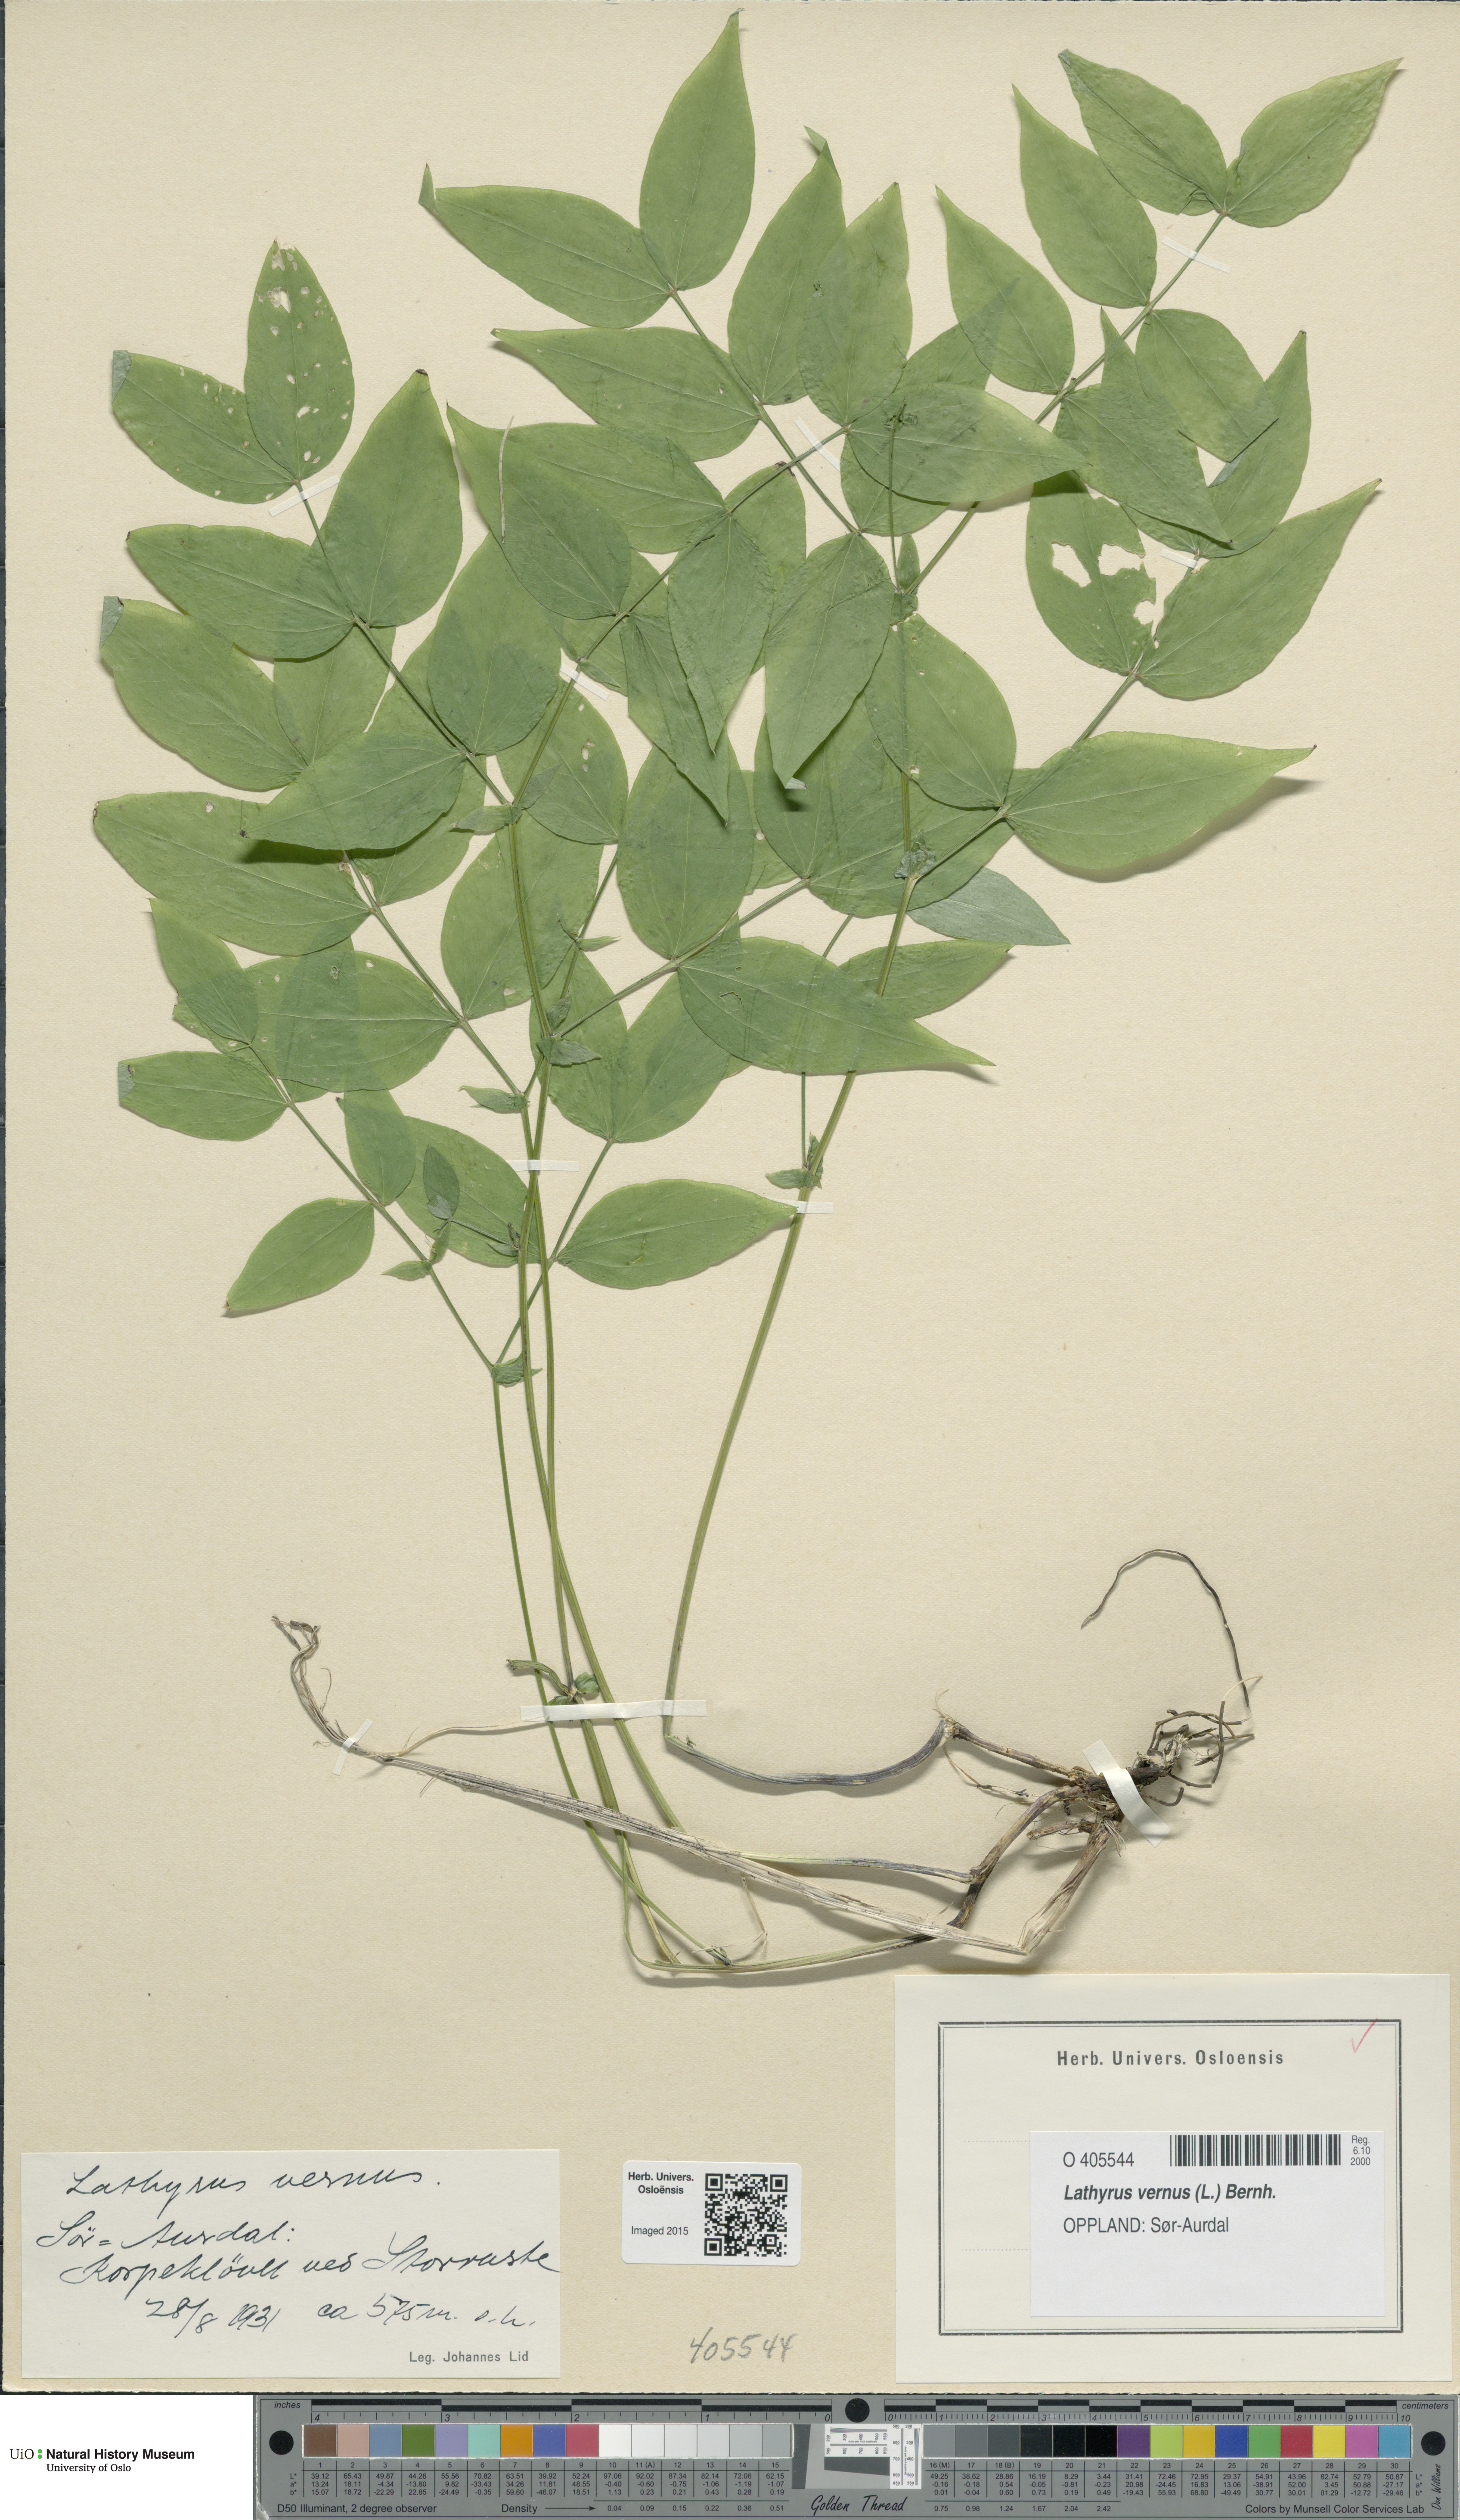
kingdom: Plantae
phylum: Tracheophyta
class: Magnoliopsida
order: Fabales
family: Fabaceae
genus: Lathyrus
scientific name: Lathyrus vernus
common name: Spring pea
